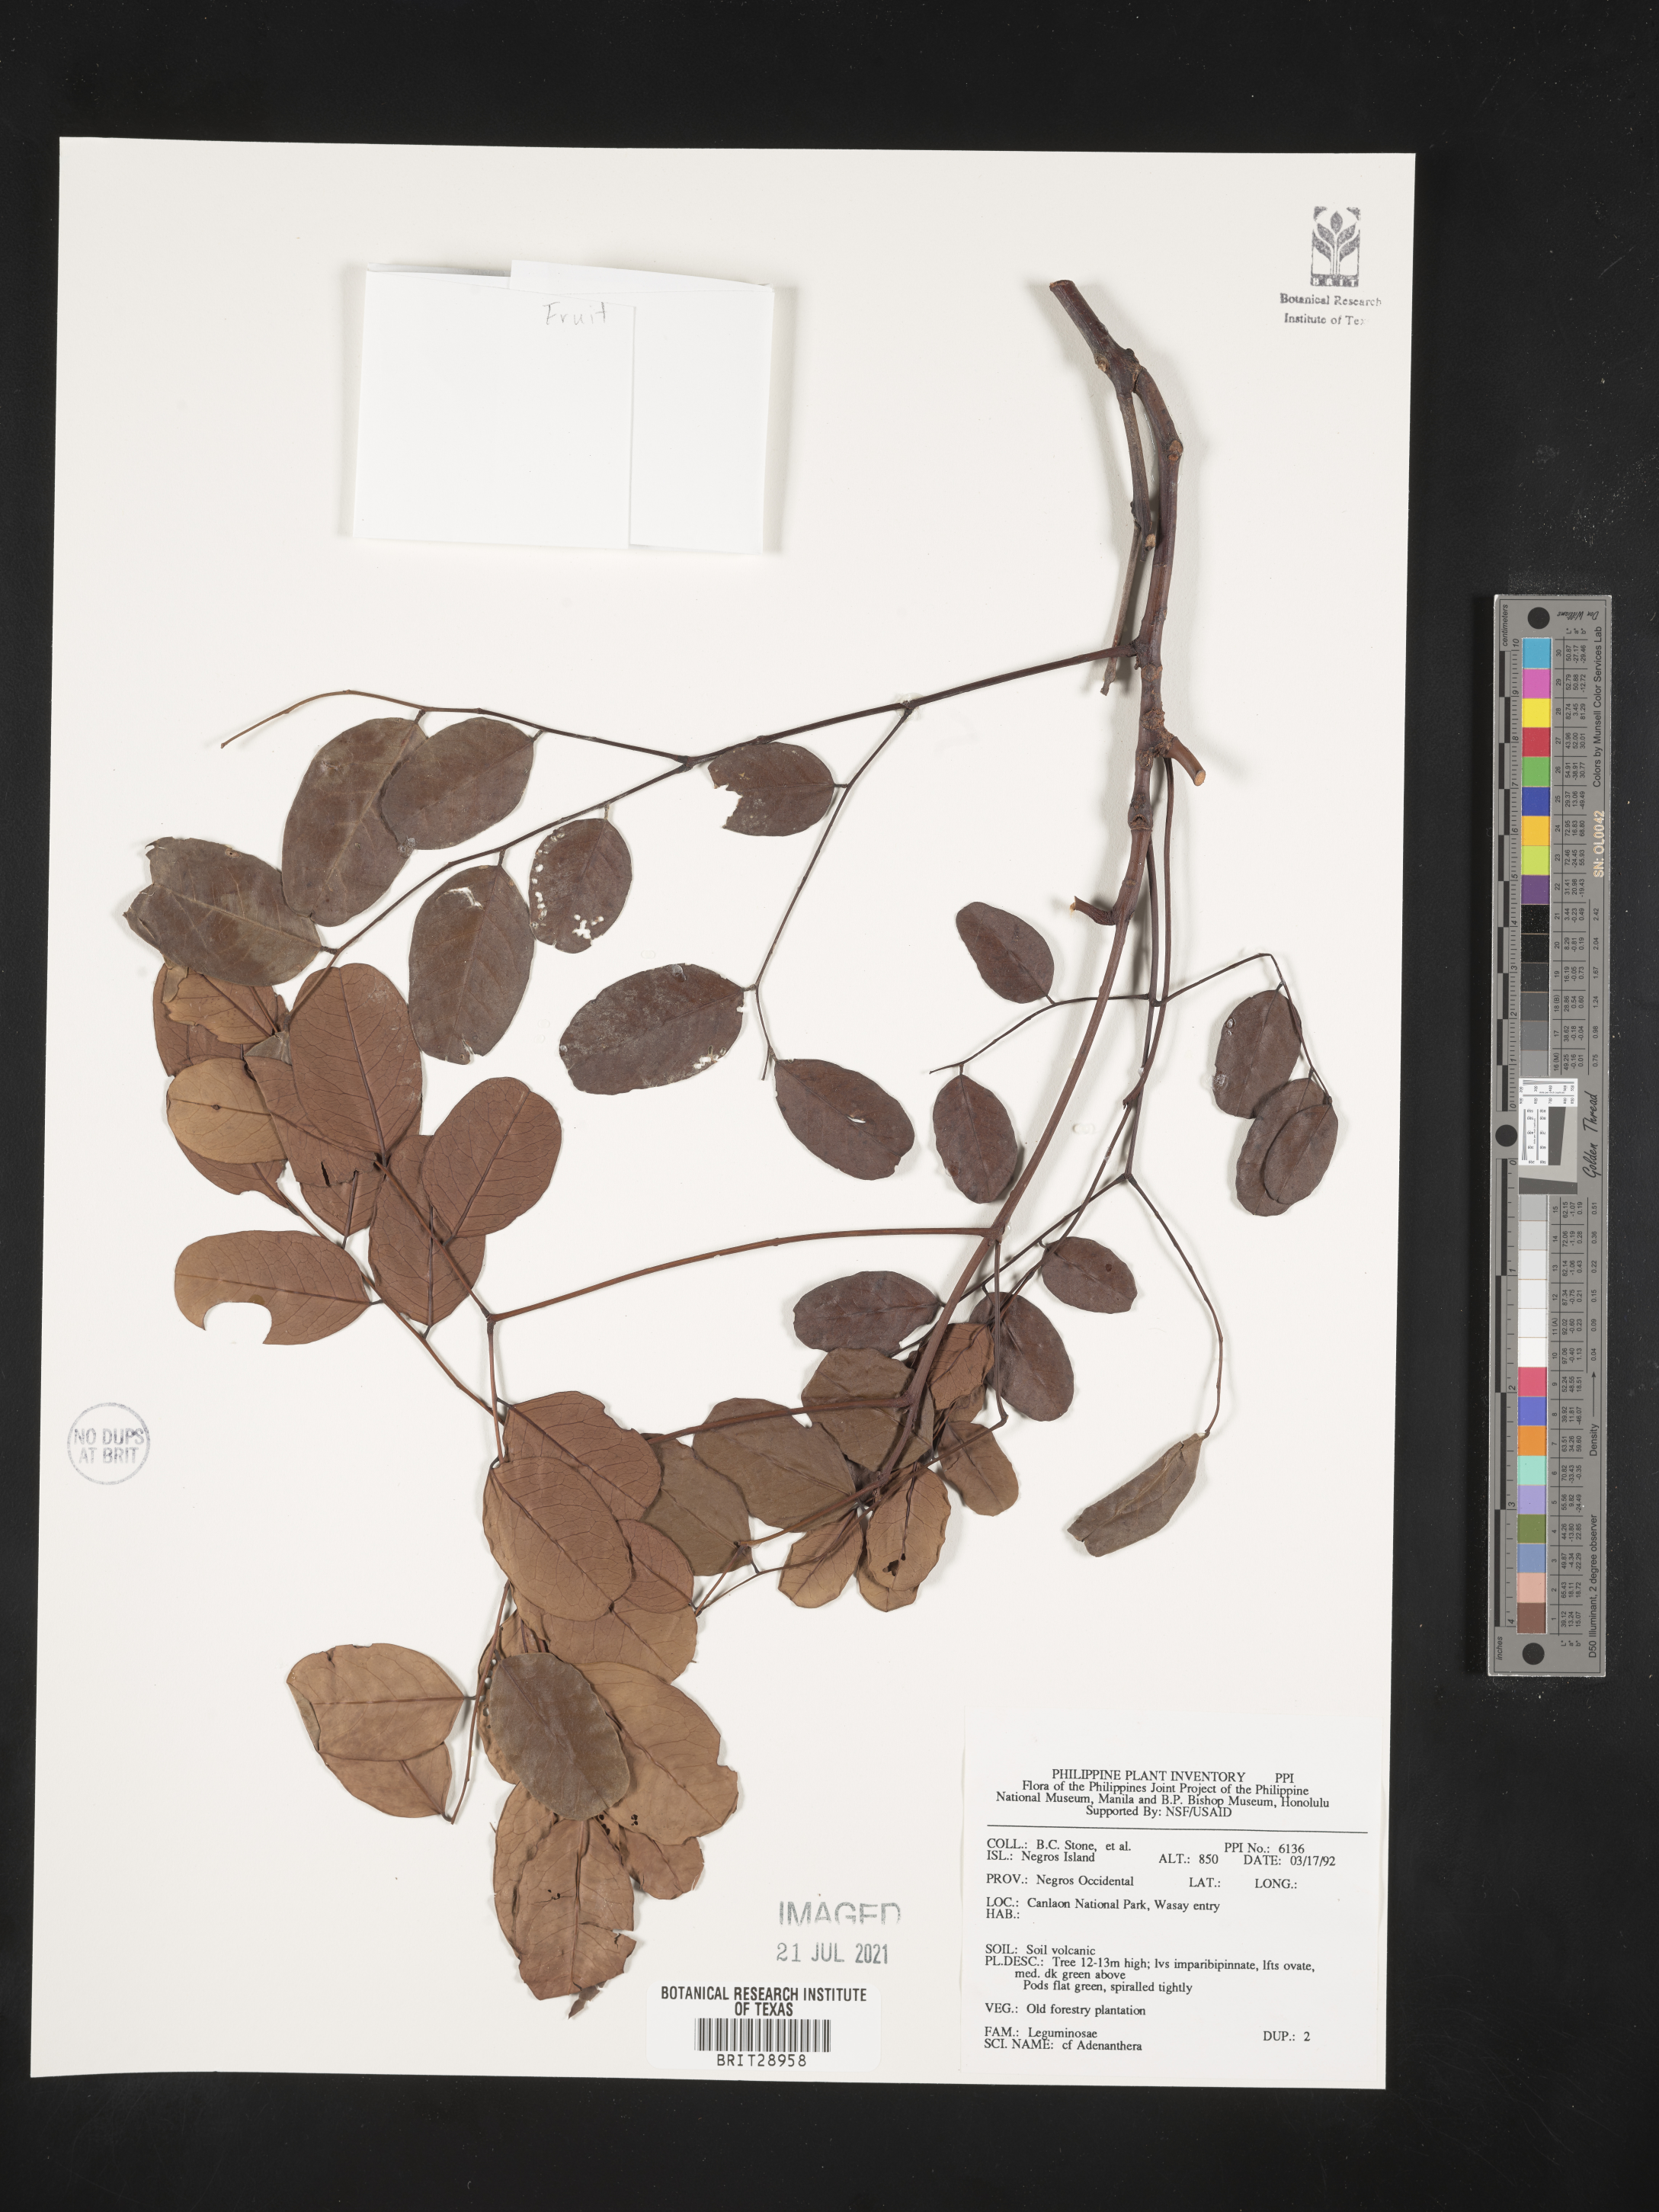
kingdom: Plantae
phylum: Tracheophyta
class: Magnoliopsida
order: Fabales
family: Fabaceae
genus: Adenanthera
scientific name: Adenanthera
